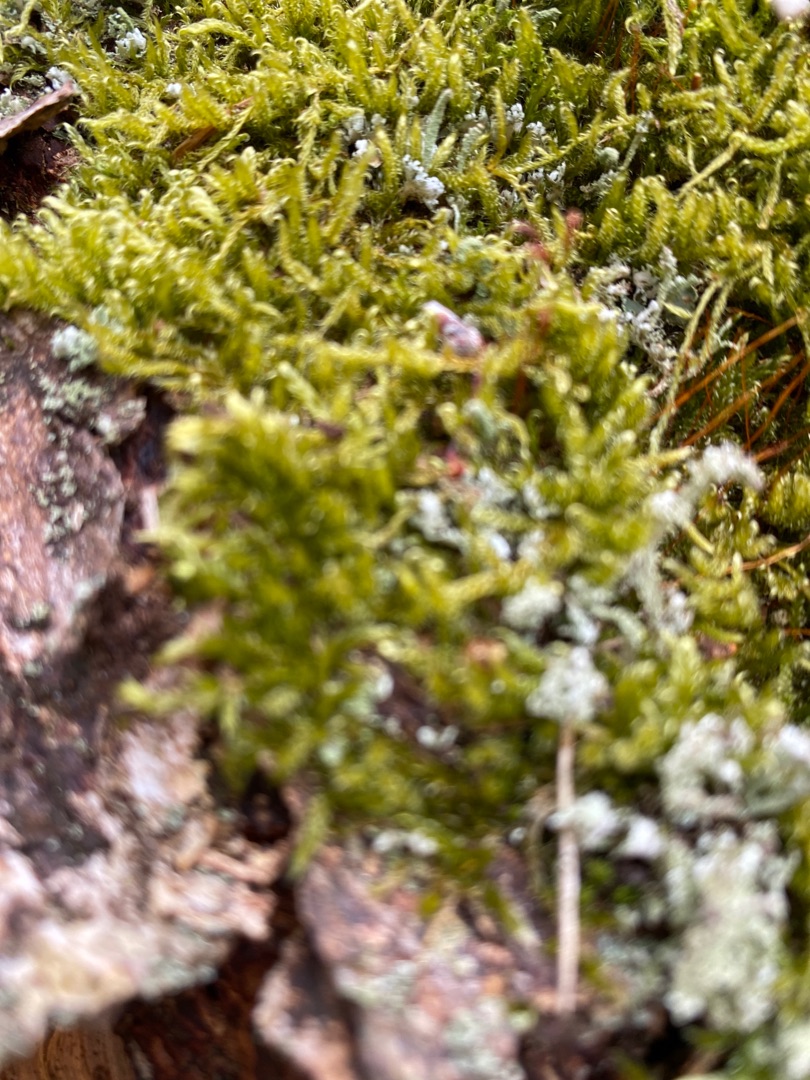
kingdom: Plantae
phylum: Bryophyta
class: Bryopsida
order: Hypnales
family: Hypnaceae
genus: Hypnum
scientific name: Hypnum
